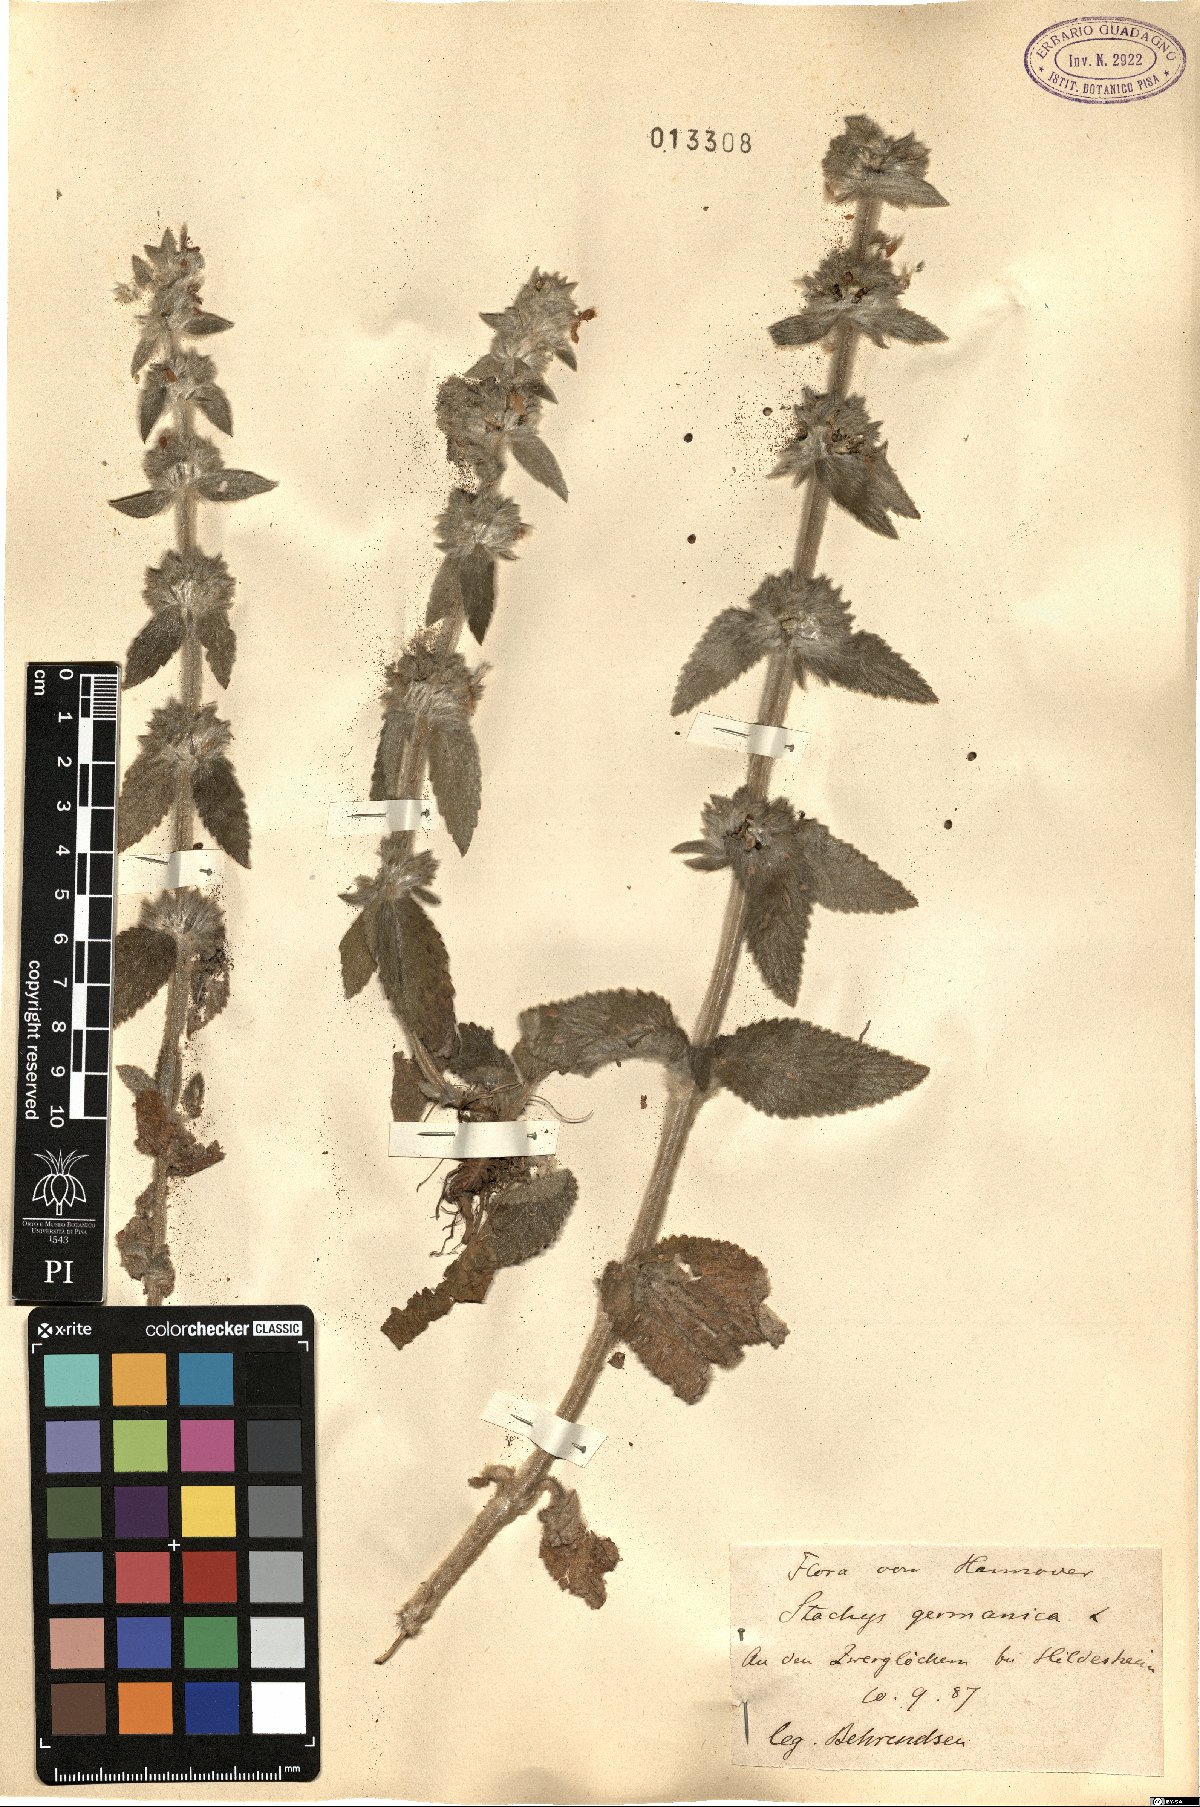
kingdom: Plantae
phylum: Tracheophyta
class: Magnoliopsida
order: Lamiales
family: Lamiaceae
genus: Stachys
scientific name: Stachys germanica
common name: Downy woundwort
